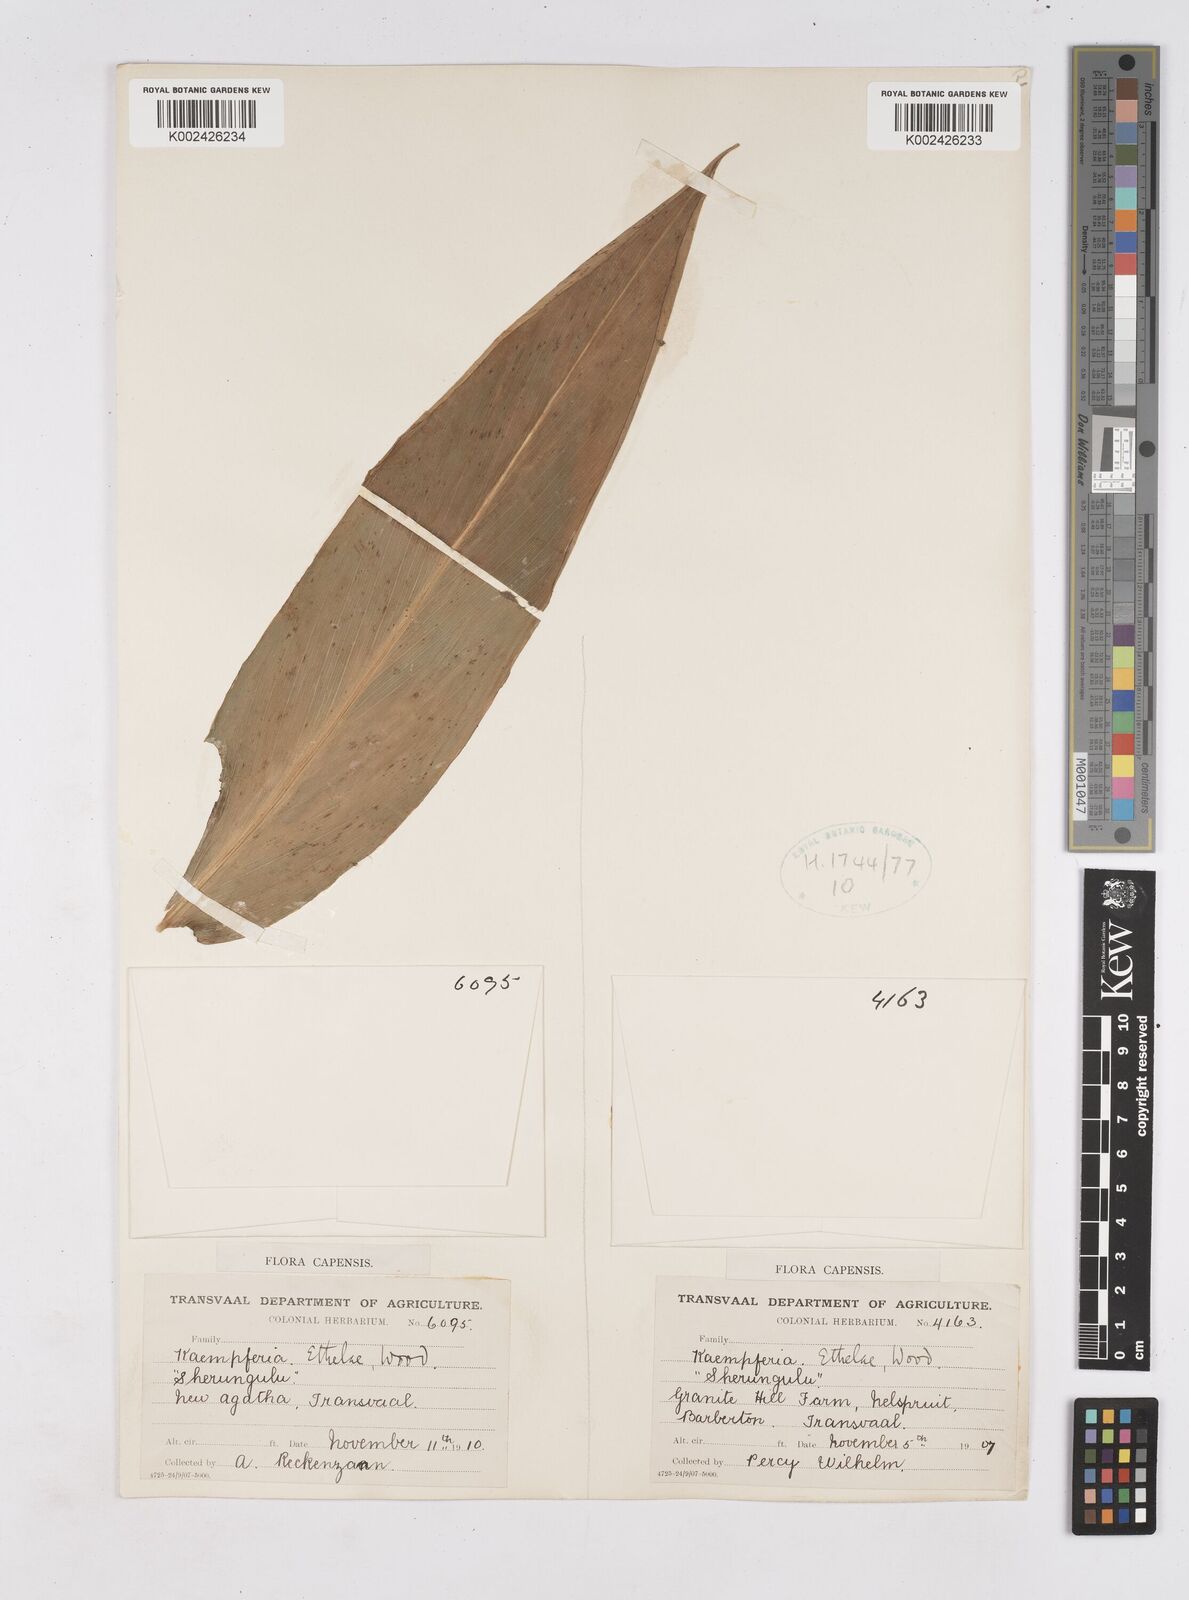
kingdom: Plantae
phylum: Tracheophyta
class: Liliopsida
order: Zingiberales
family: Zingiberaceae
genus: Siphonochilus
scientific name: Siphonochilus
